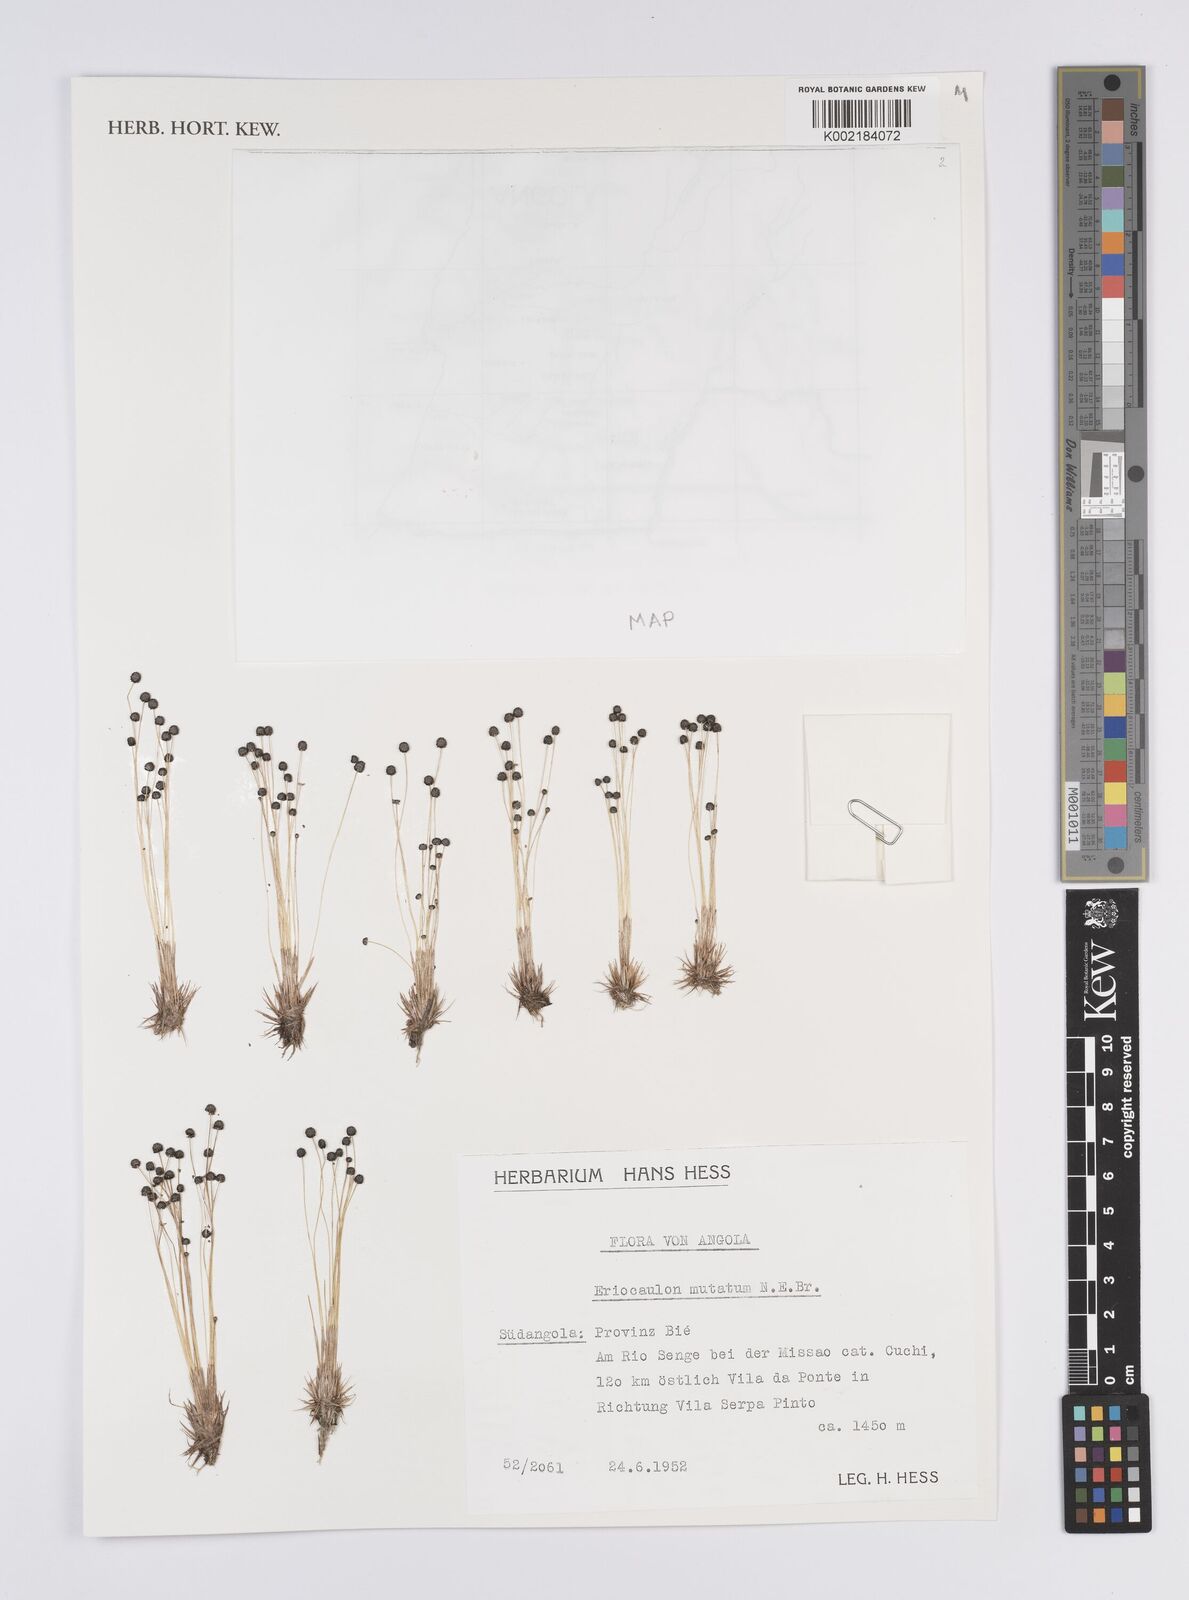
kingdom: Plantae
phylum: Tracheophyta
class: Liliopsida
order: Poales
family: Eriocaulaceae
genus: Eriocaulon
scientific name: Eriocaulon mutatum
